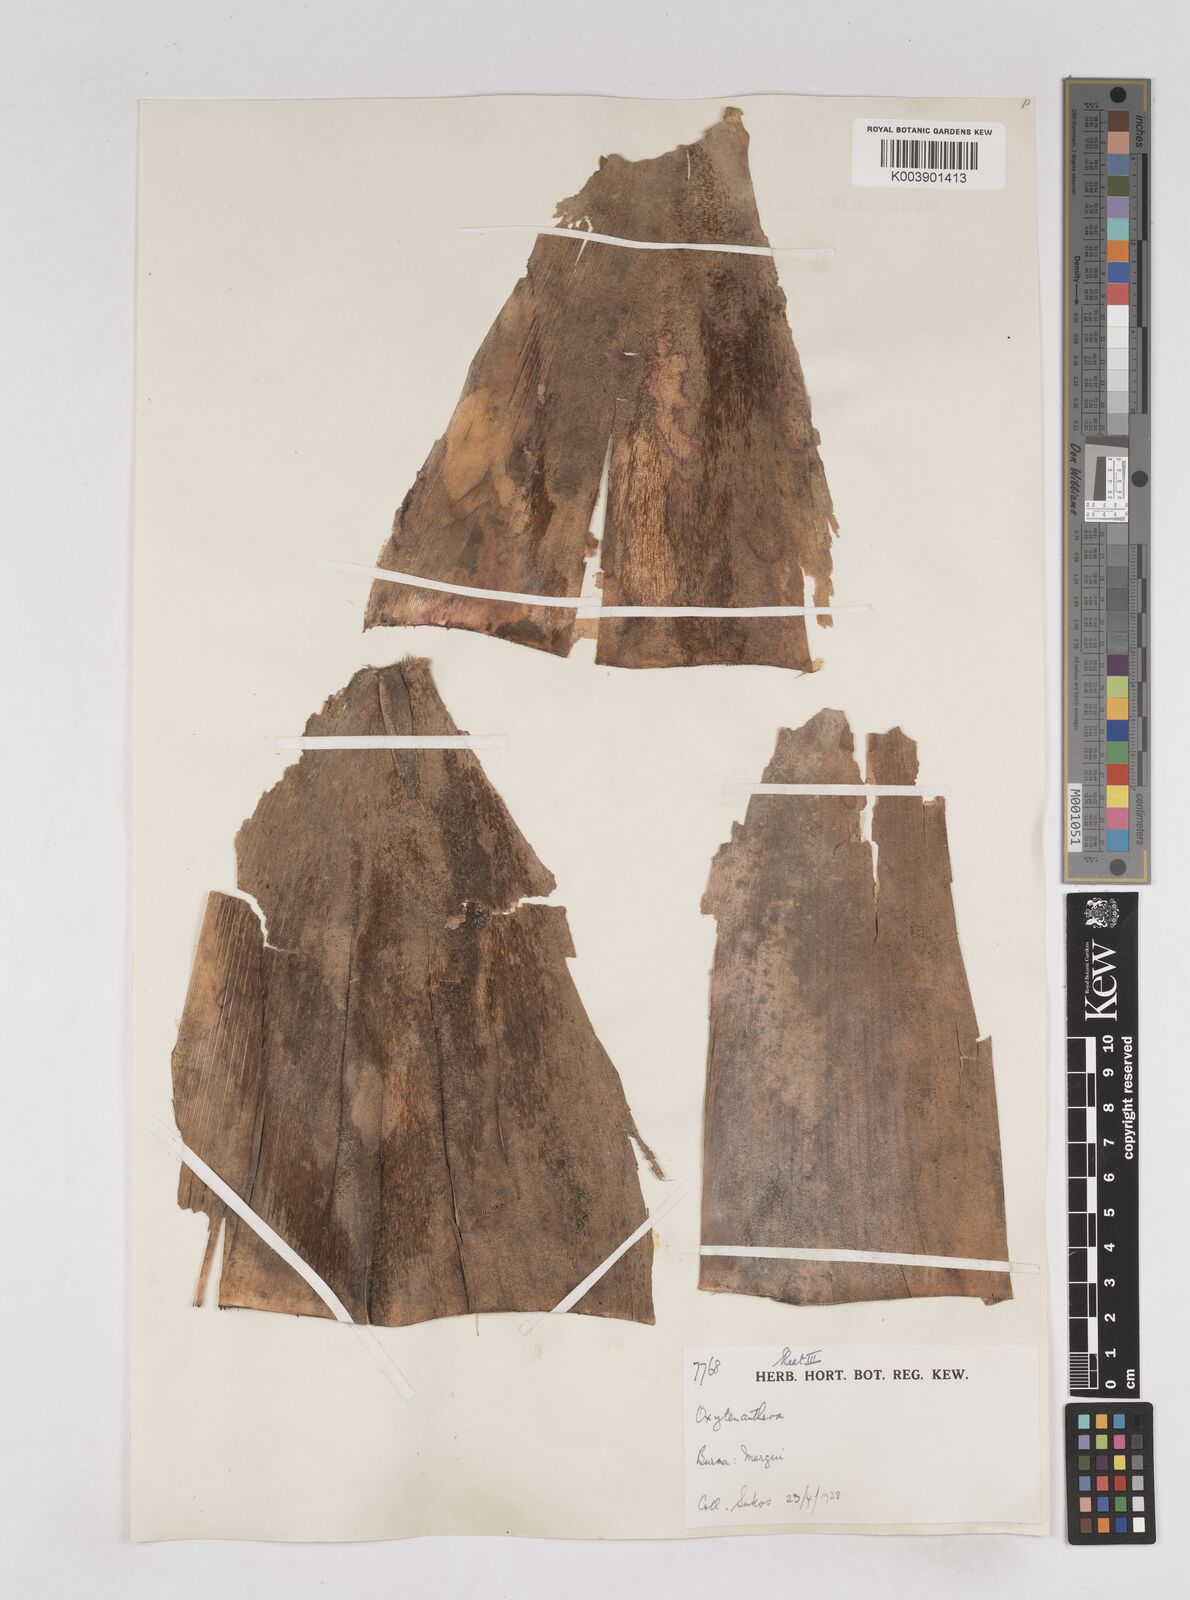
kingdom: Plantae
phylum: Tracheophyta
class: Liliopsida
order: Poales
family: Poaceae
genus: Schizostachyum
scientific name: Schizostachyum
